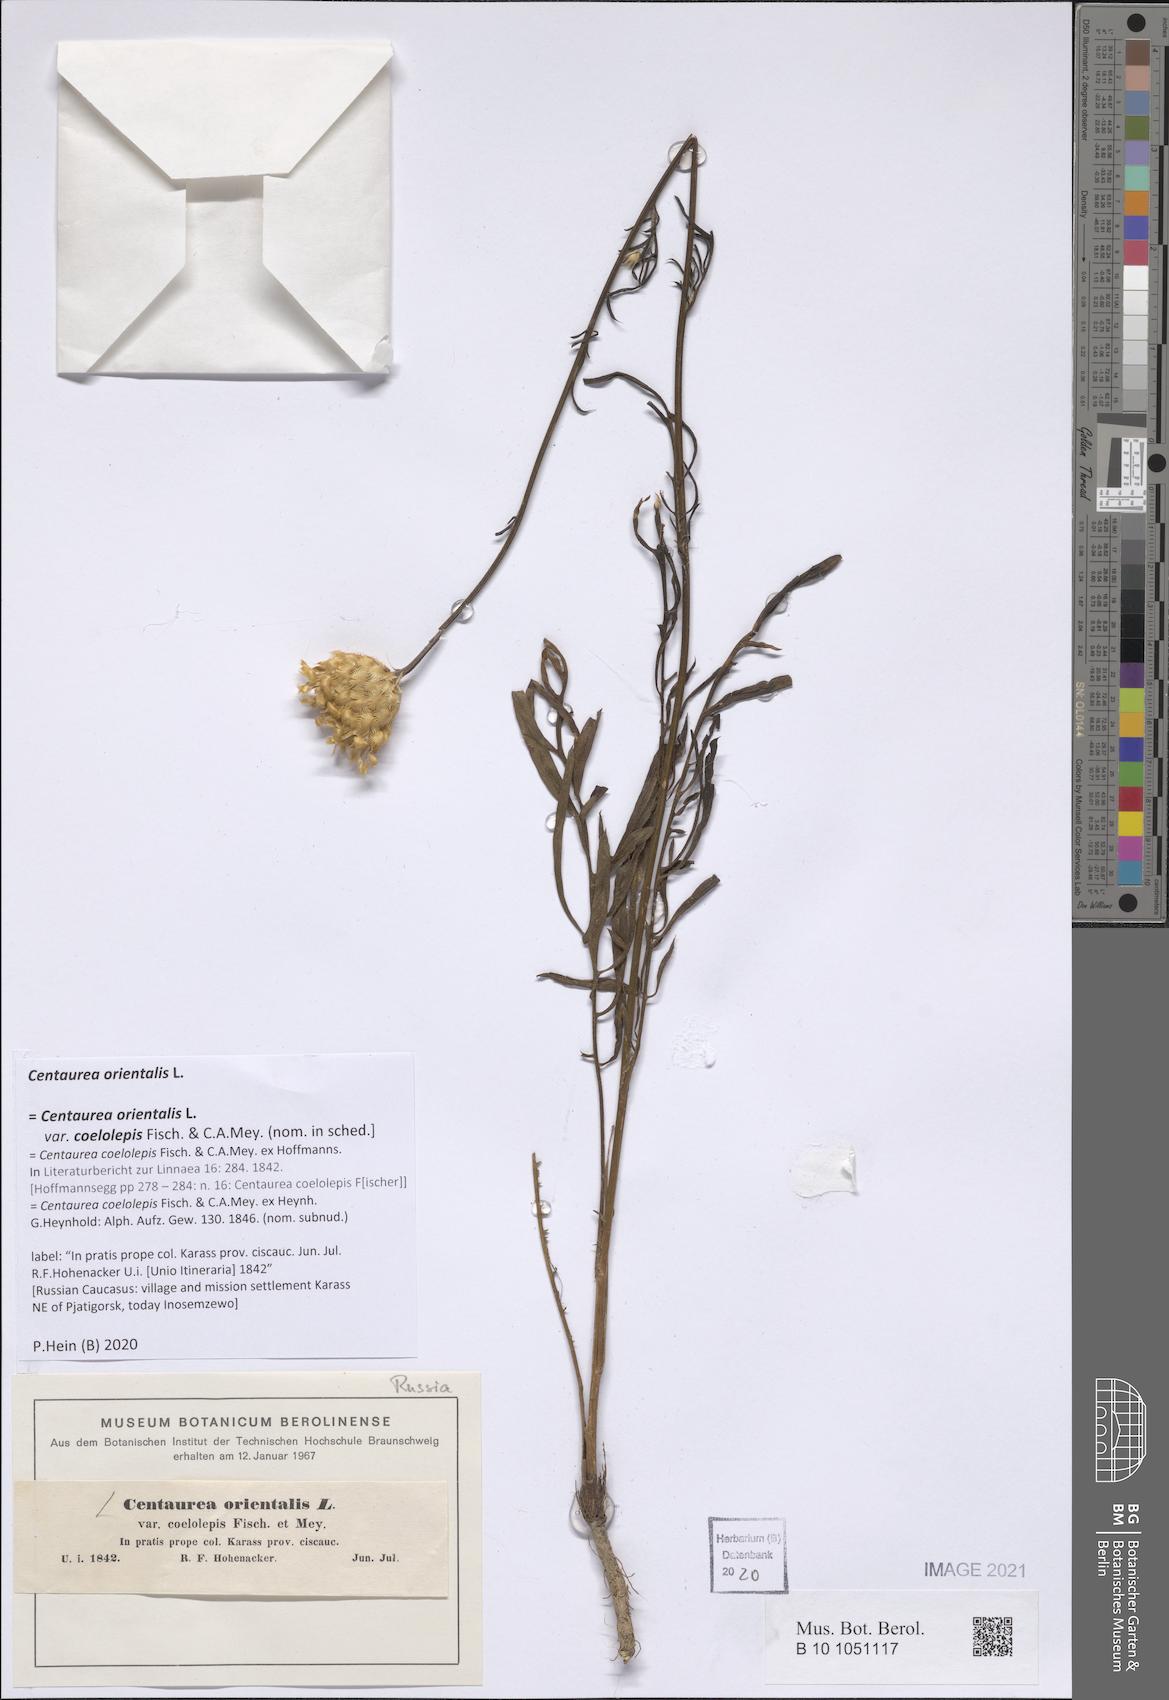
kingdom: Plantae
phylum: Tracheophyta
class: Magnoliopsida
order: Asterales
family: Asteraceae
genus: Centaurea
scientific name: Centaurea orientalis
